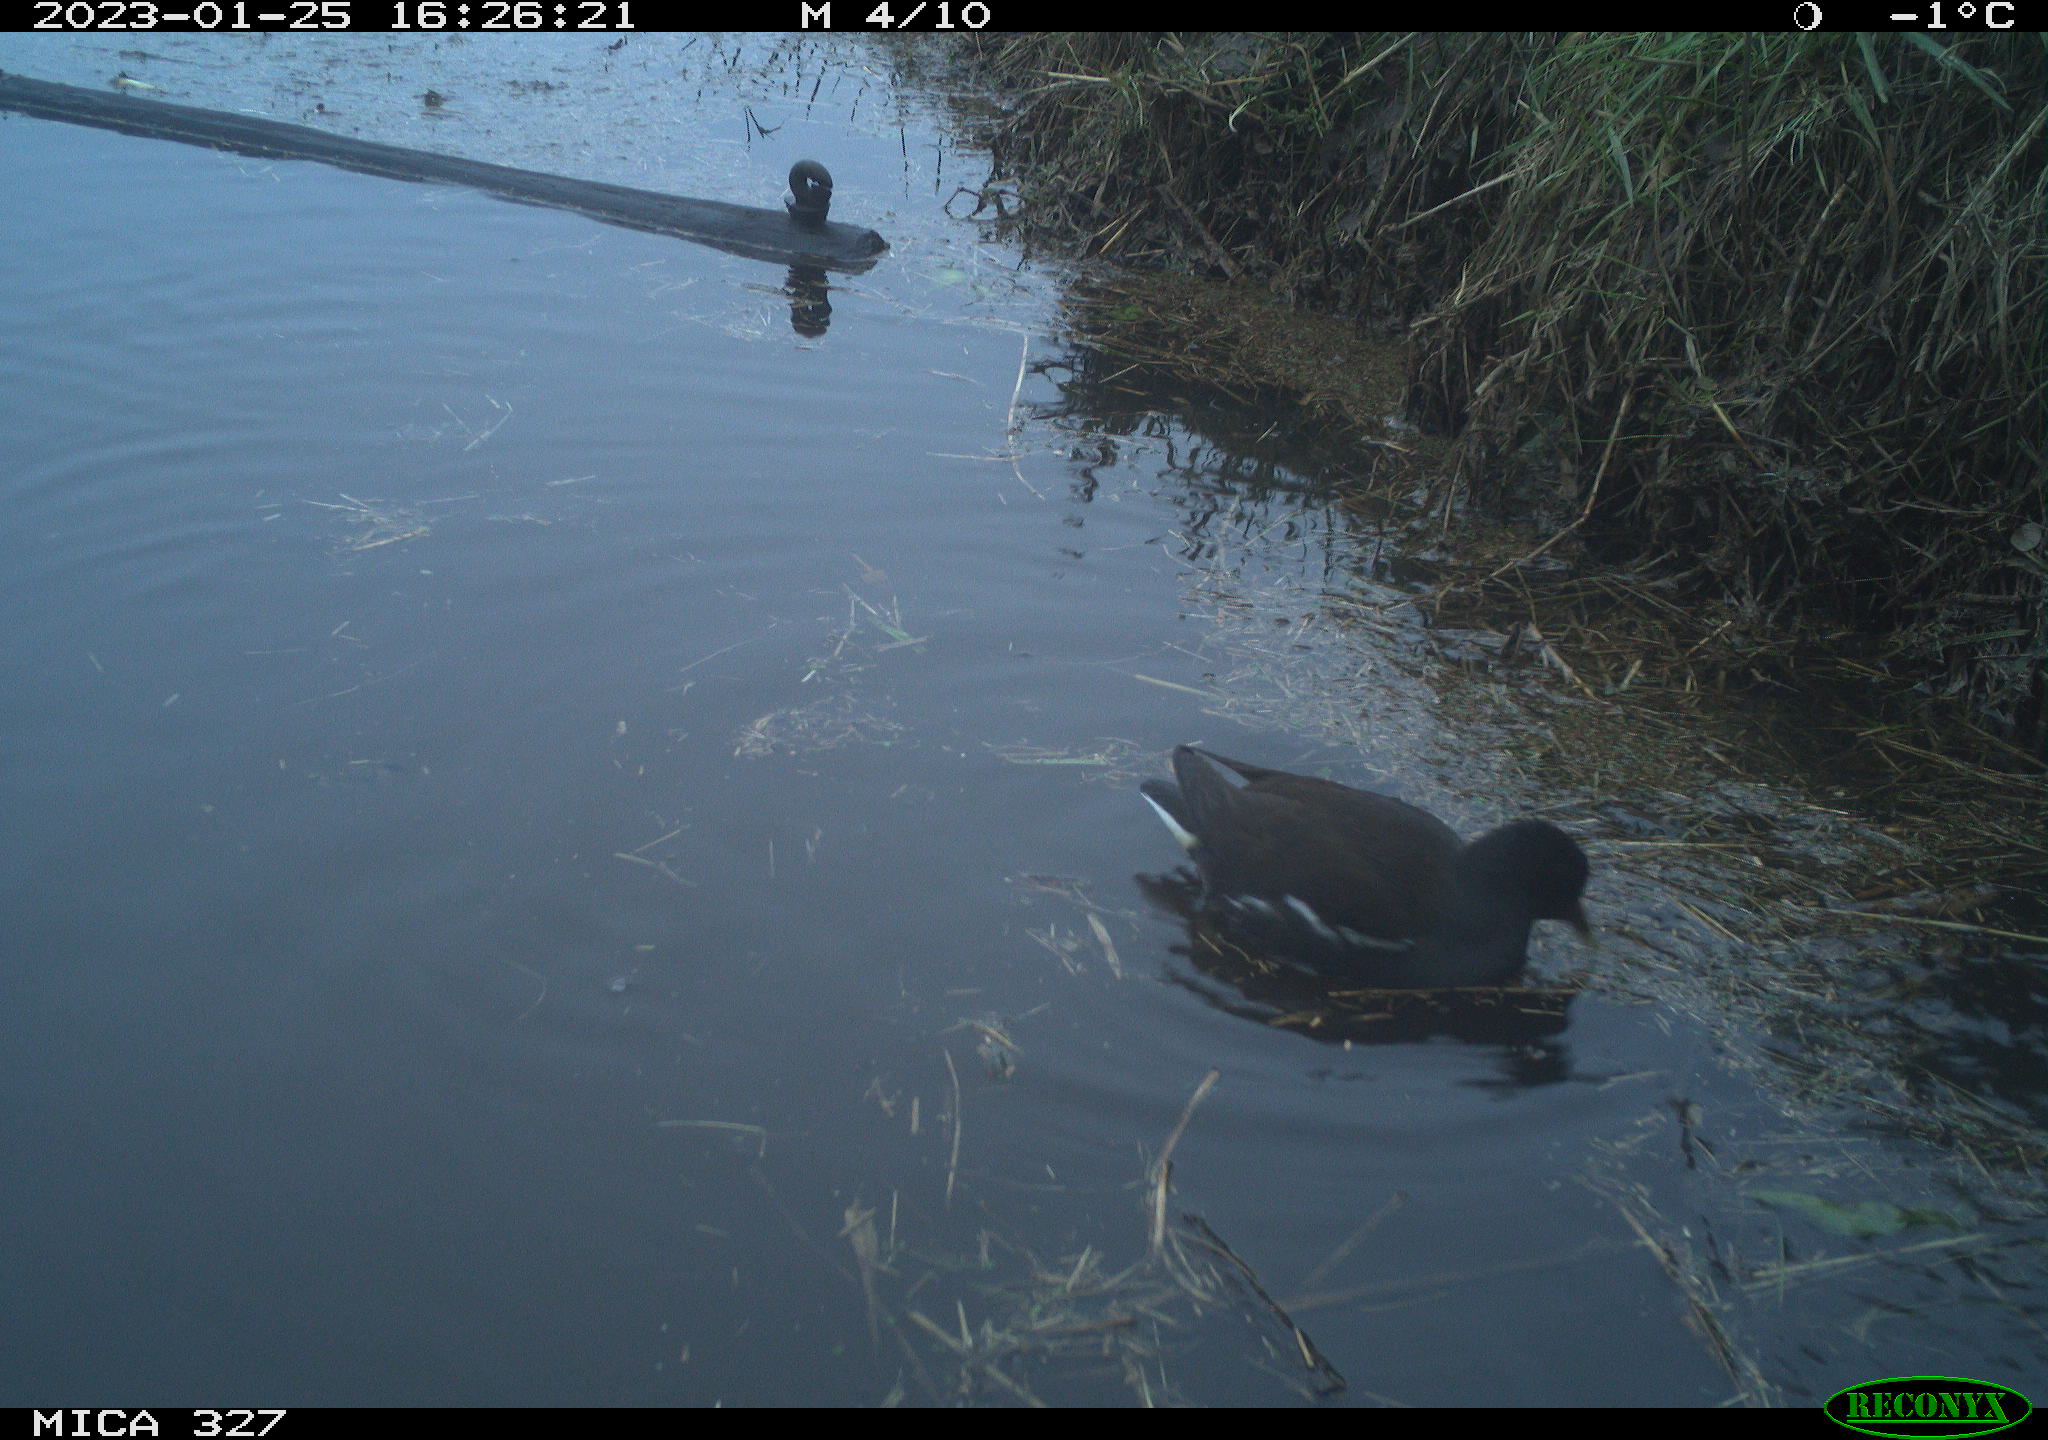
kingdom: Animalia
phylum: Chordata
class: Aves
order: Gruiformes
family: Rallidae
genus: Gallinula
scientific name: Gallinula chloropus
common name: Common moorhen
